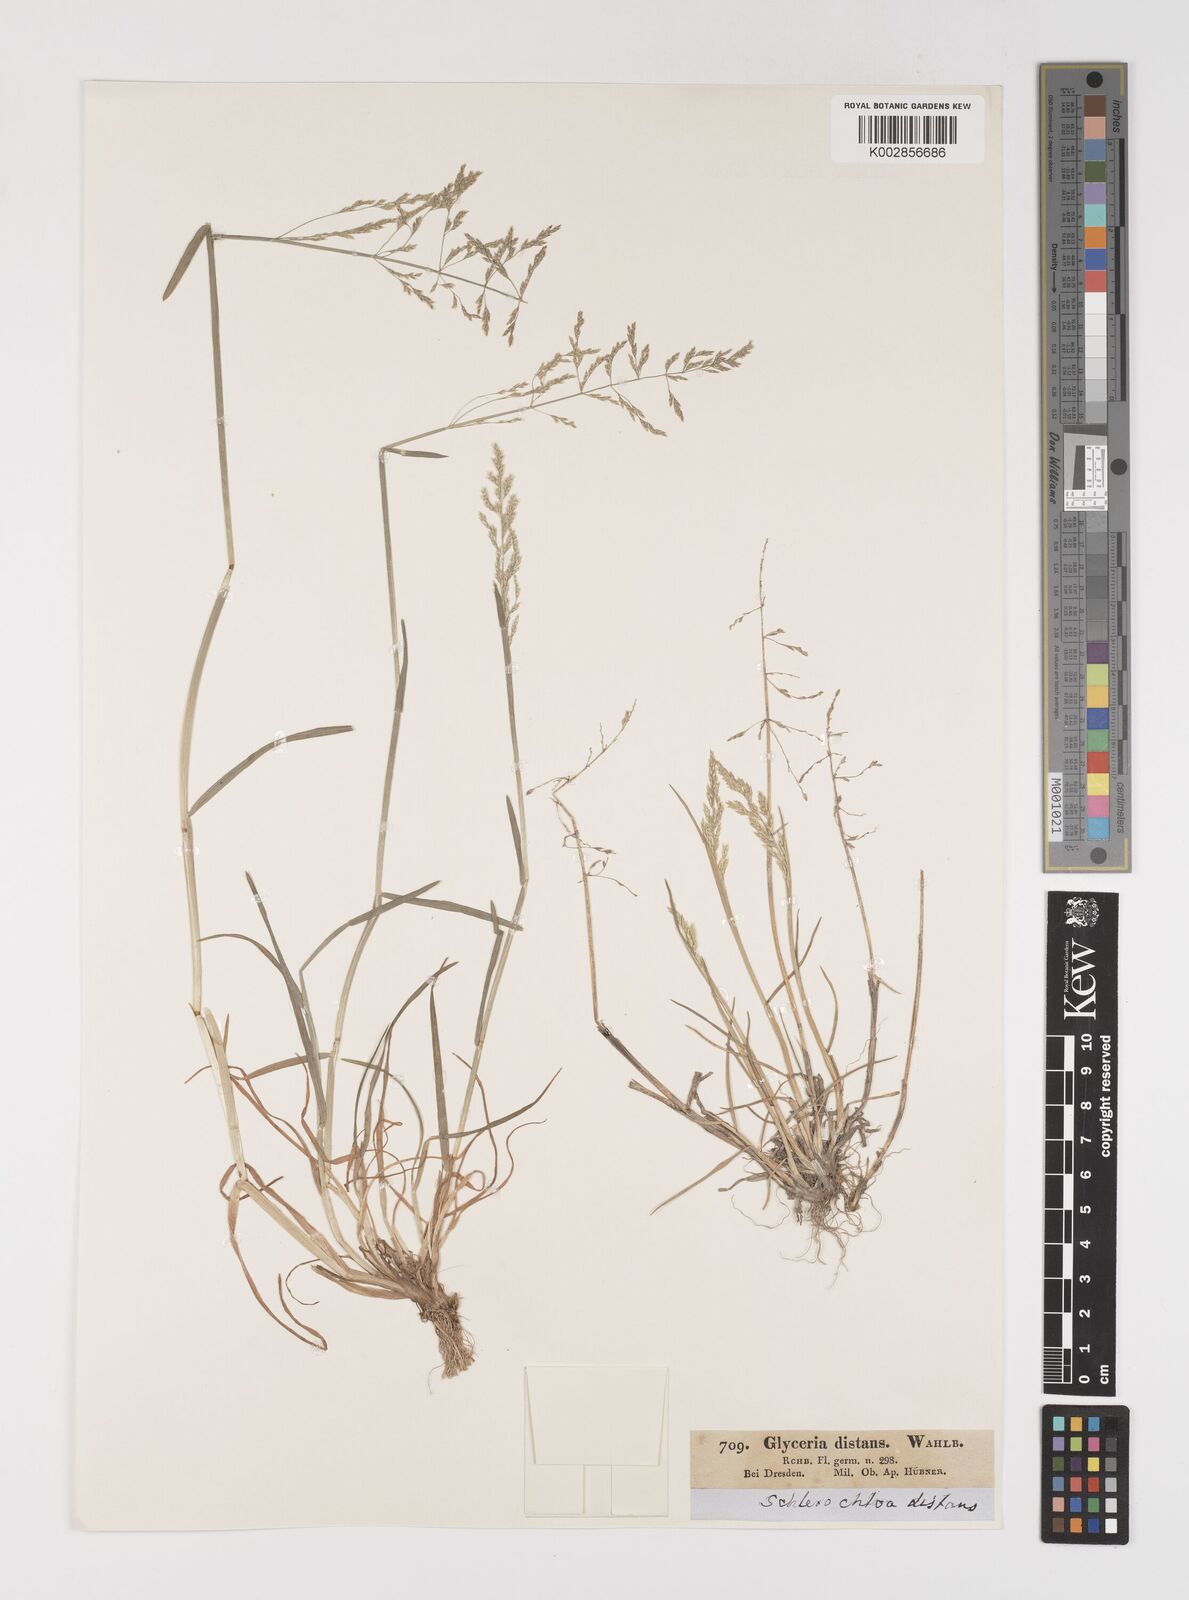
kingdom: Plantae
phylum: Tracheophyta
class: Liliopsida
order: Poales
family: Poaceae
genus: Puccinellia
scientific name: Puccinellia
